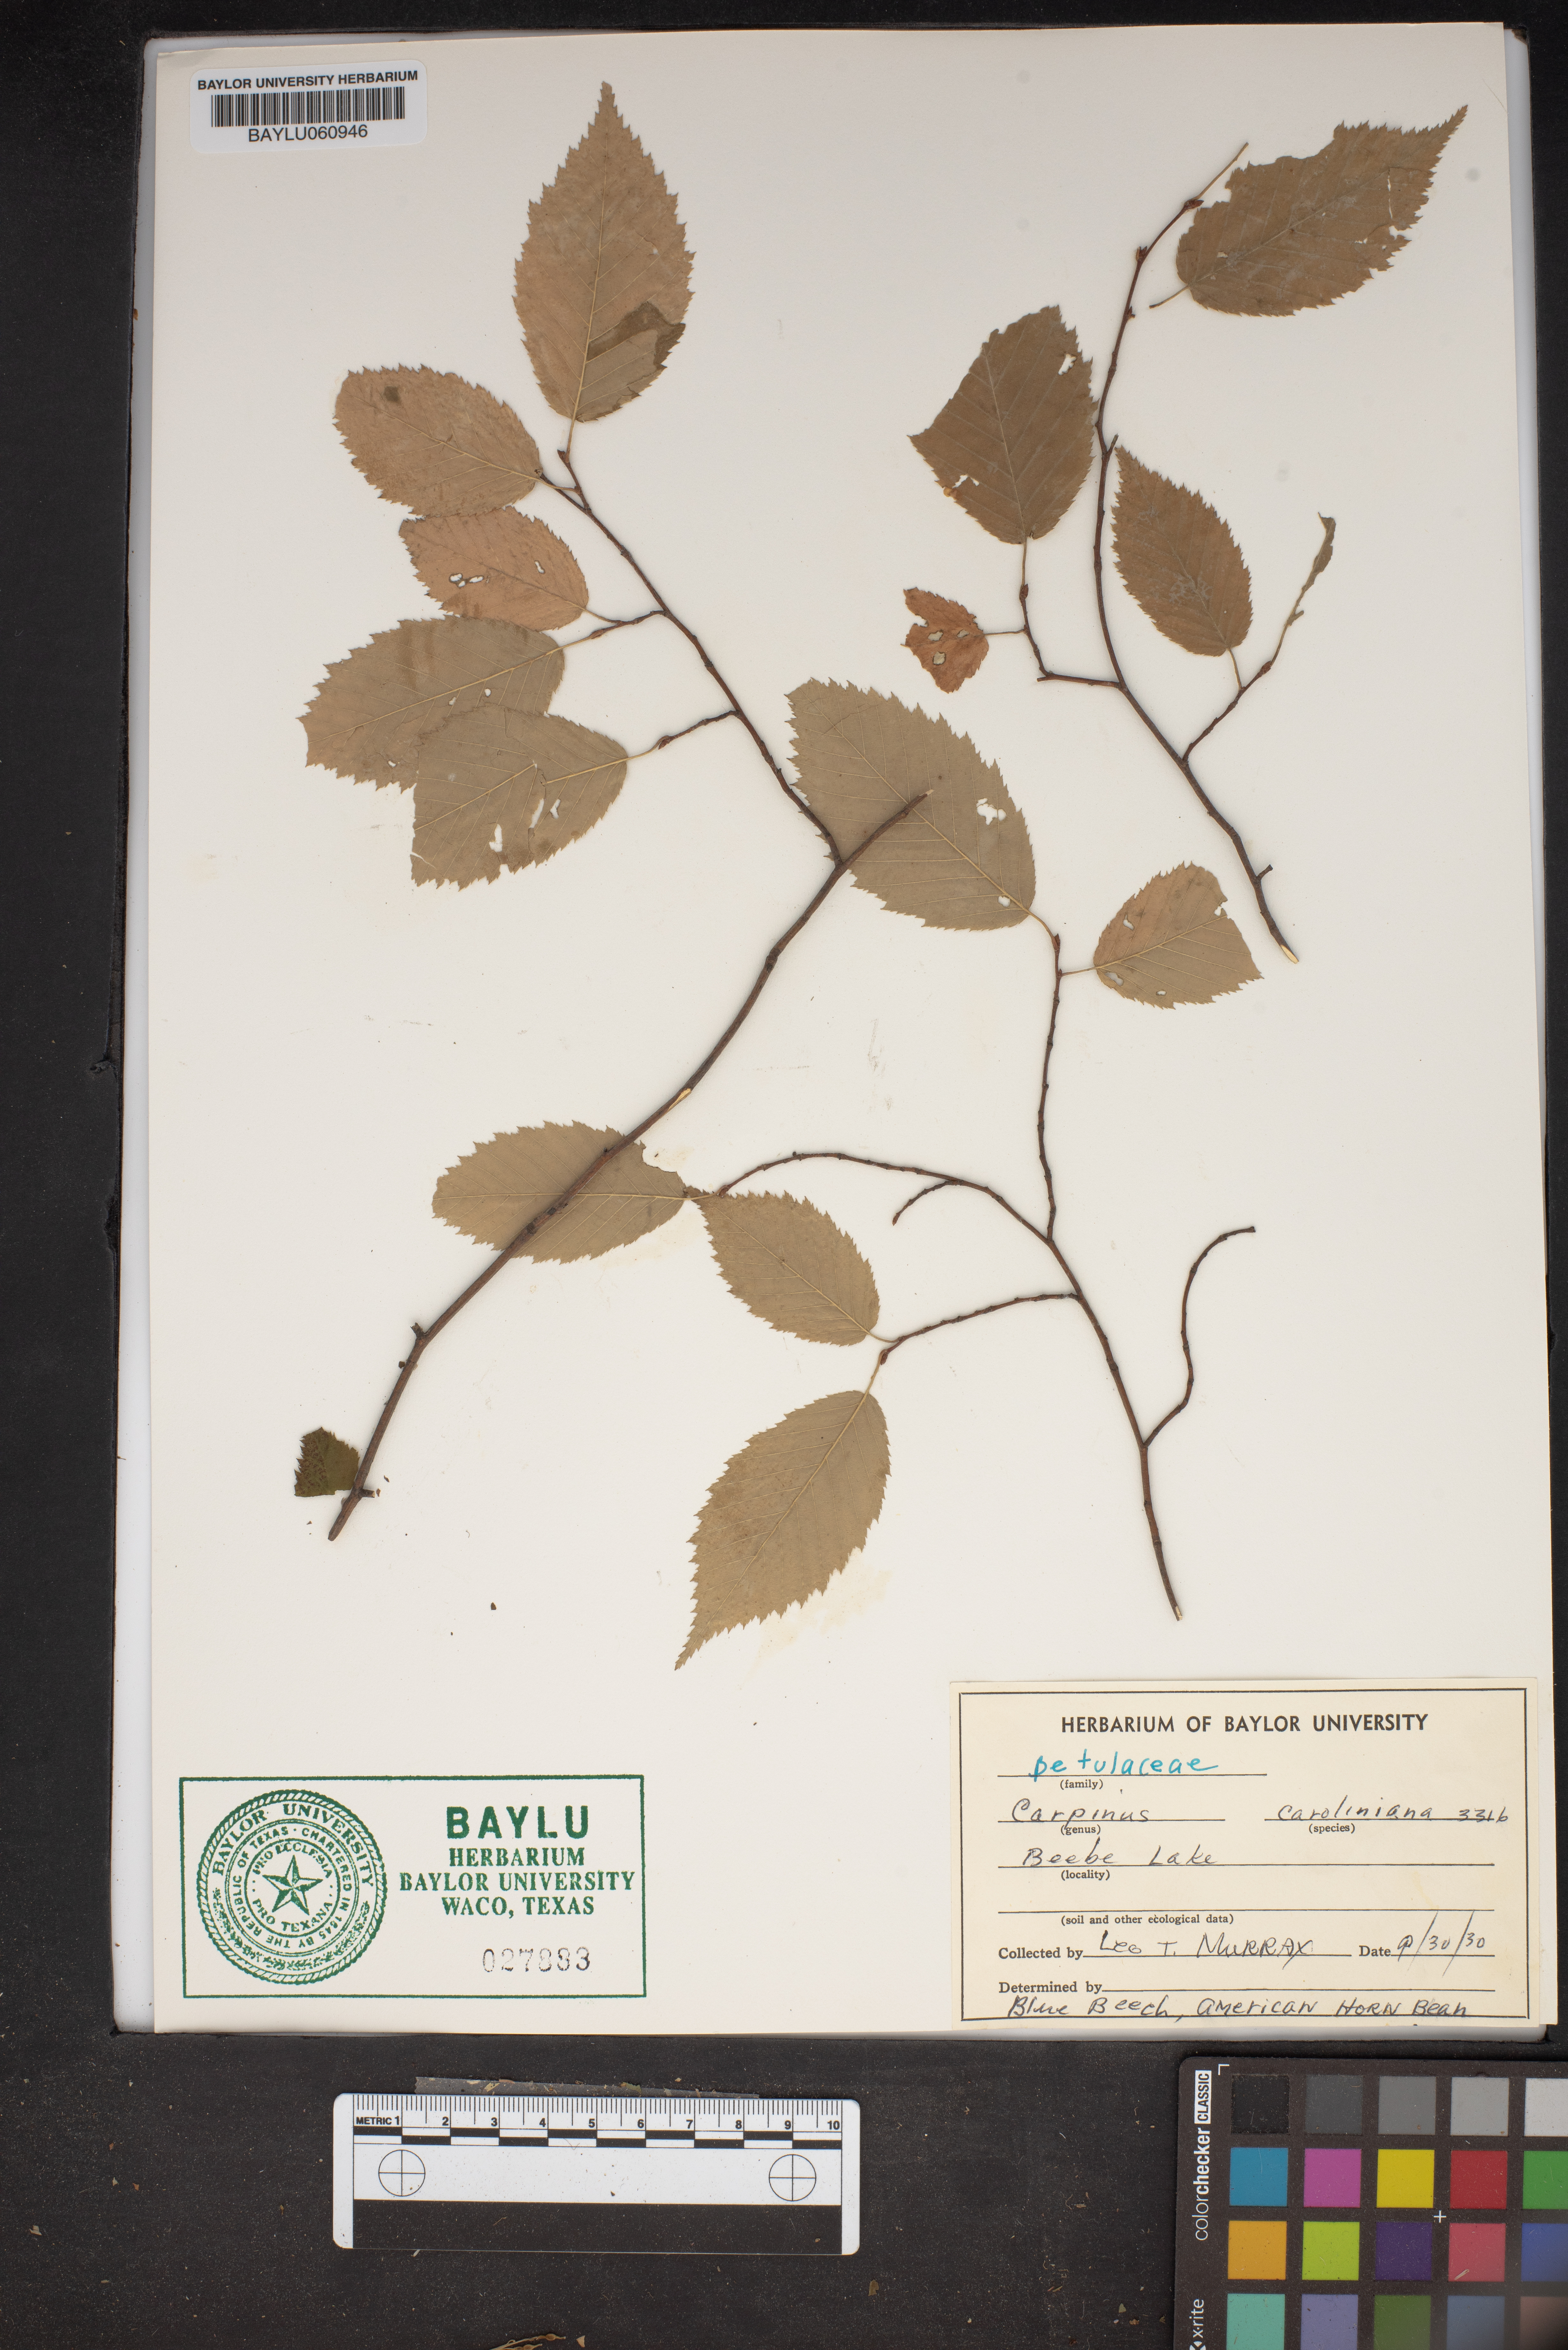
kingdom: Plantae
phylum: Tracheophyta
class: Magnoliopsida
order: Fagales
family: Betulaceae
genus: Carpinus
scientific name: Carpinus caroliniana
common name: American hornbeam
